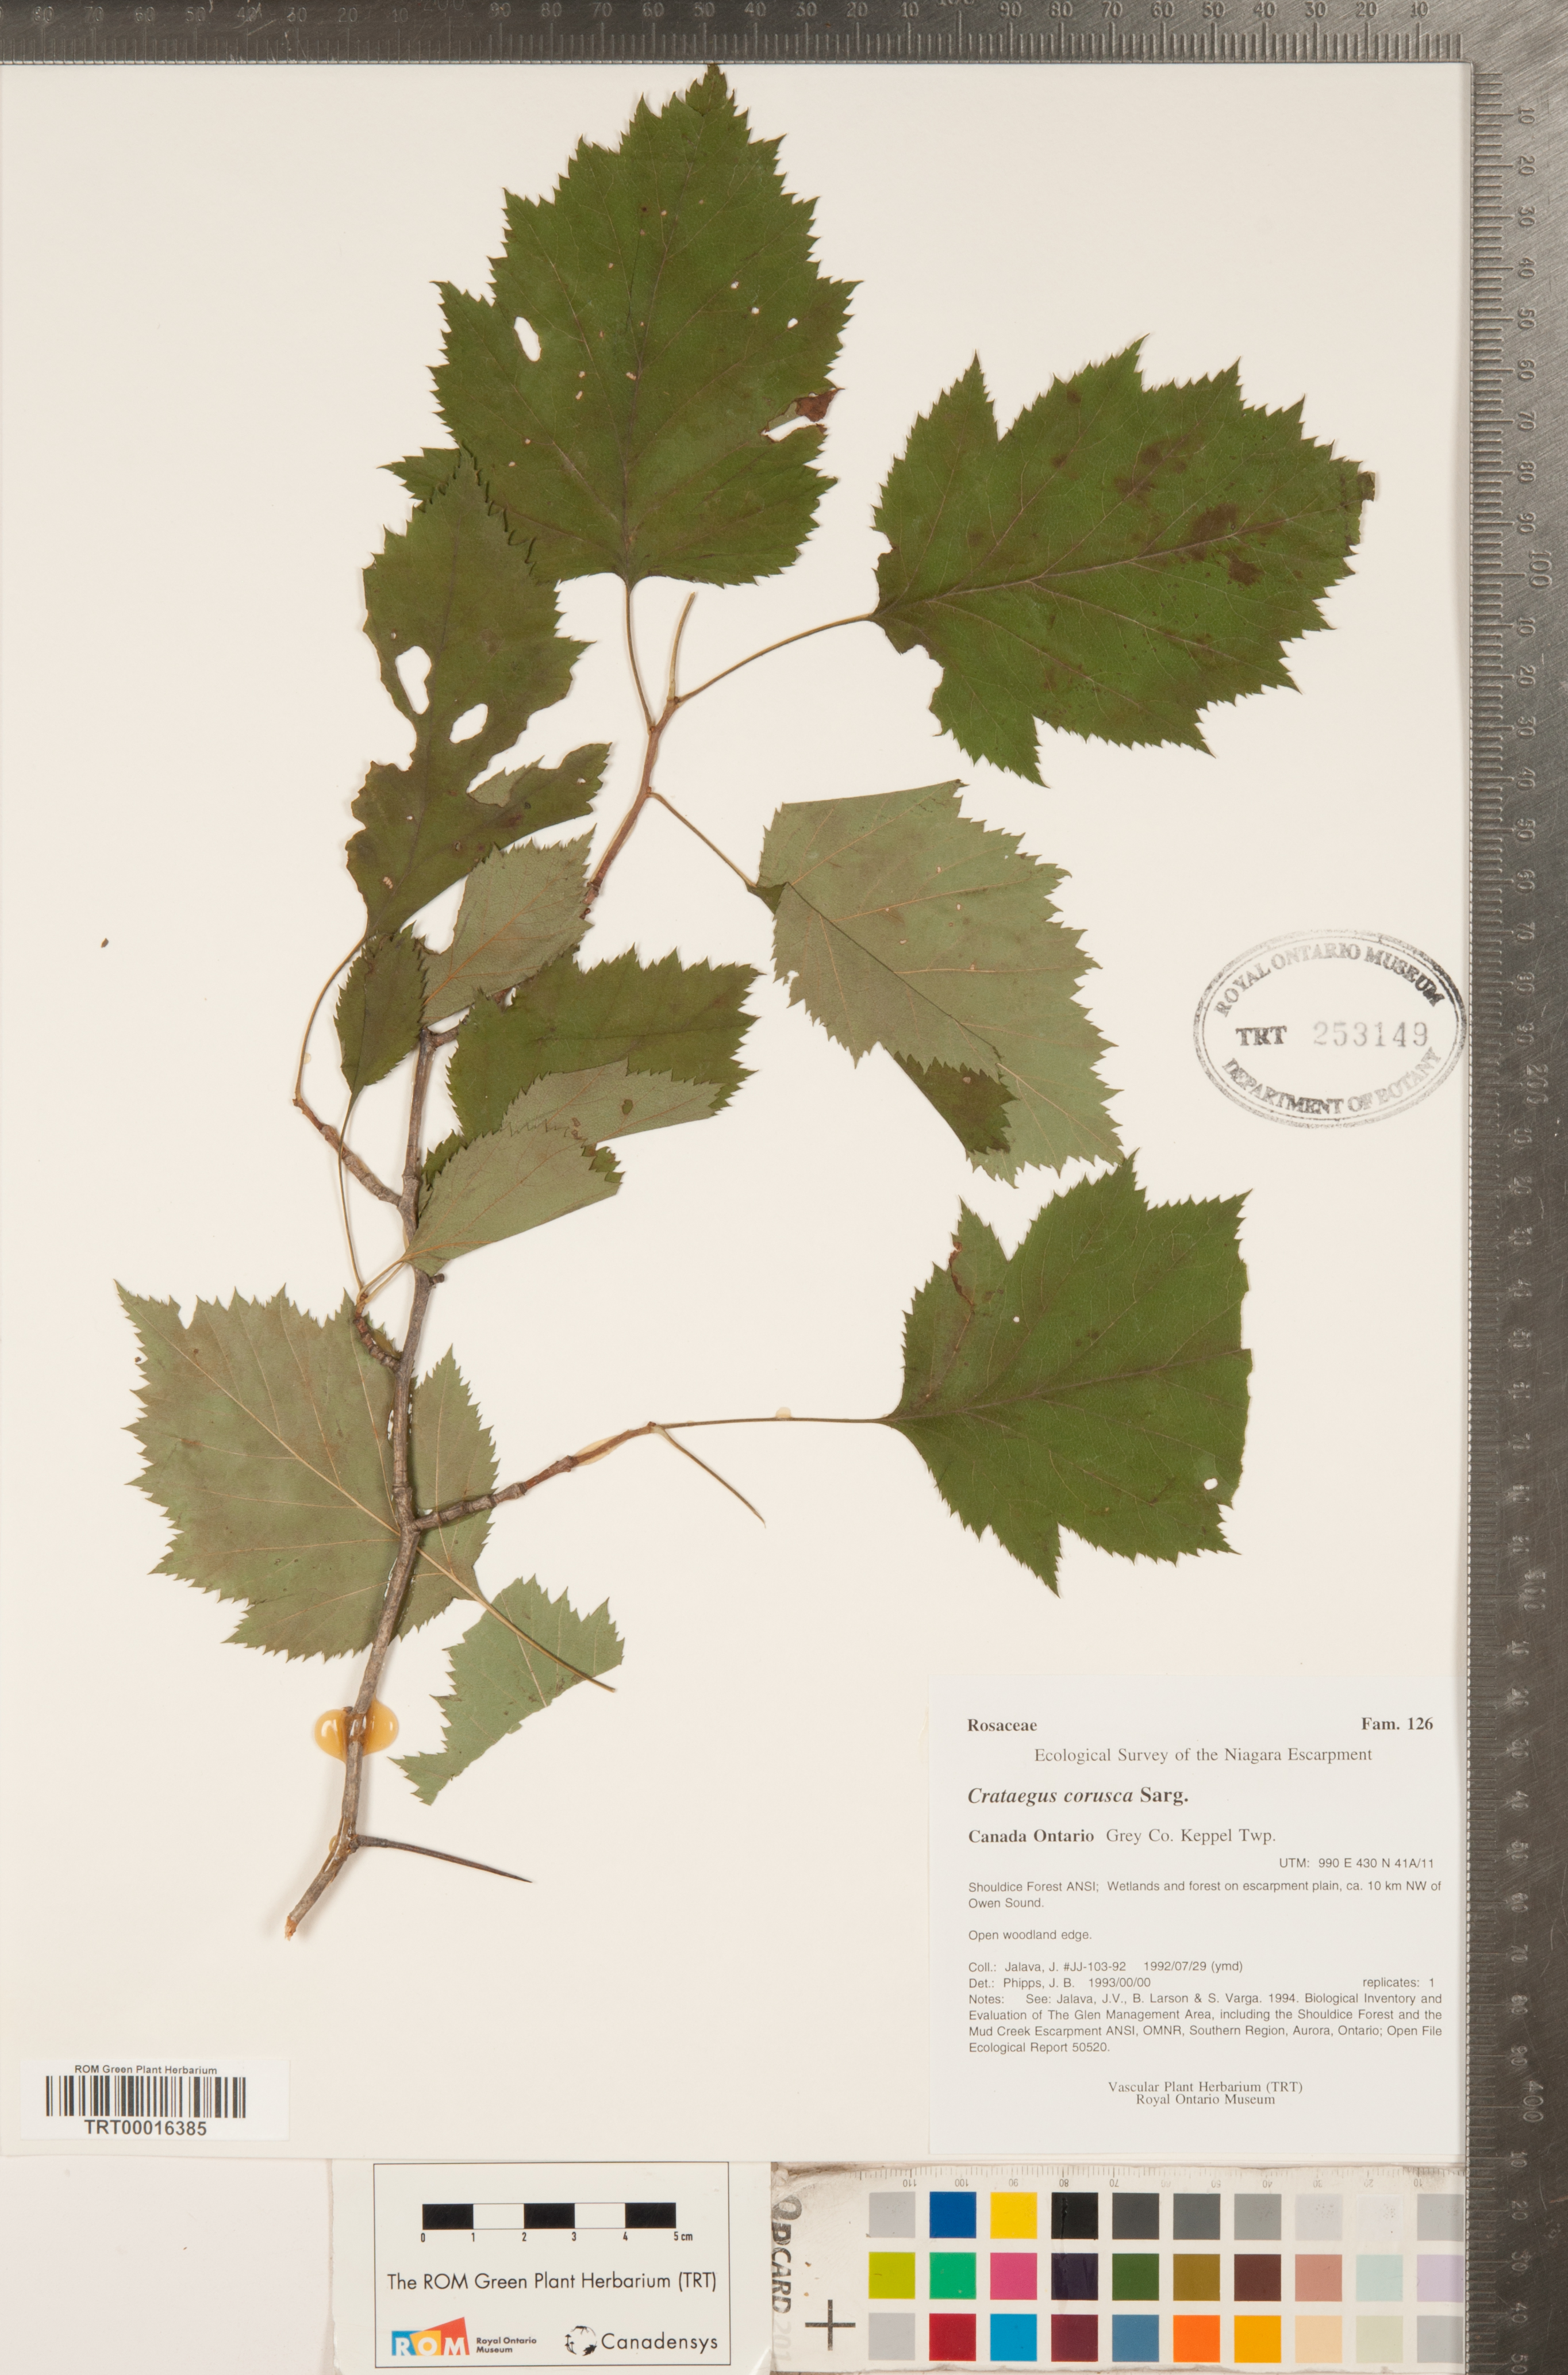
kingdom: Plantae
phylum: Tracheophyta
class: Magnoliopsida
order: Rosales
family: Rosaceae
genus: Crataegus
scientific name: Crataegus corusca
